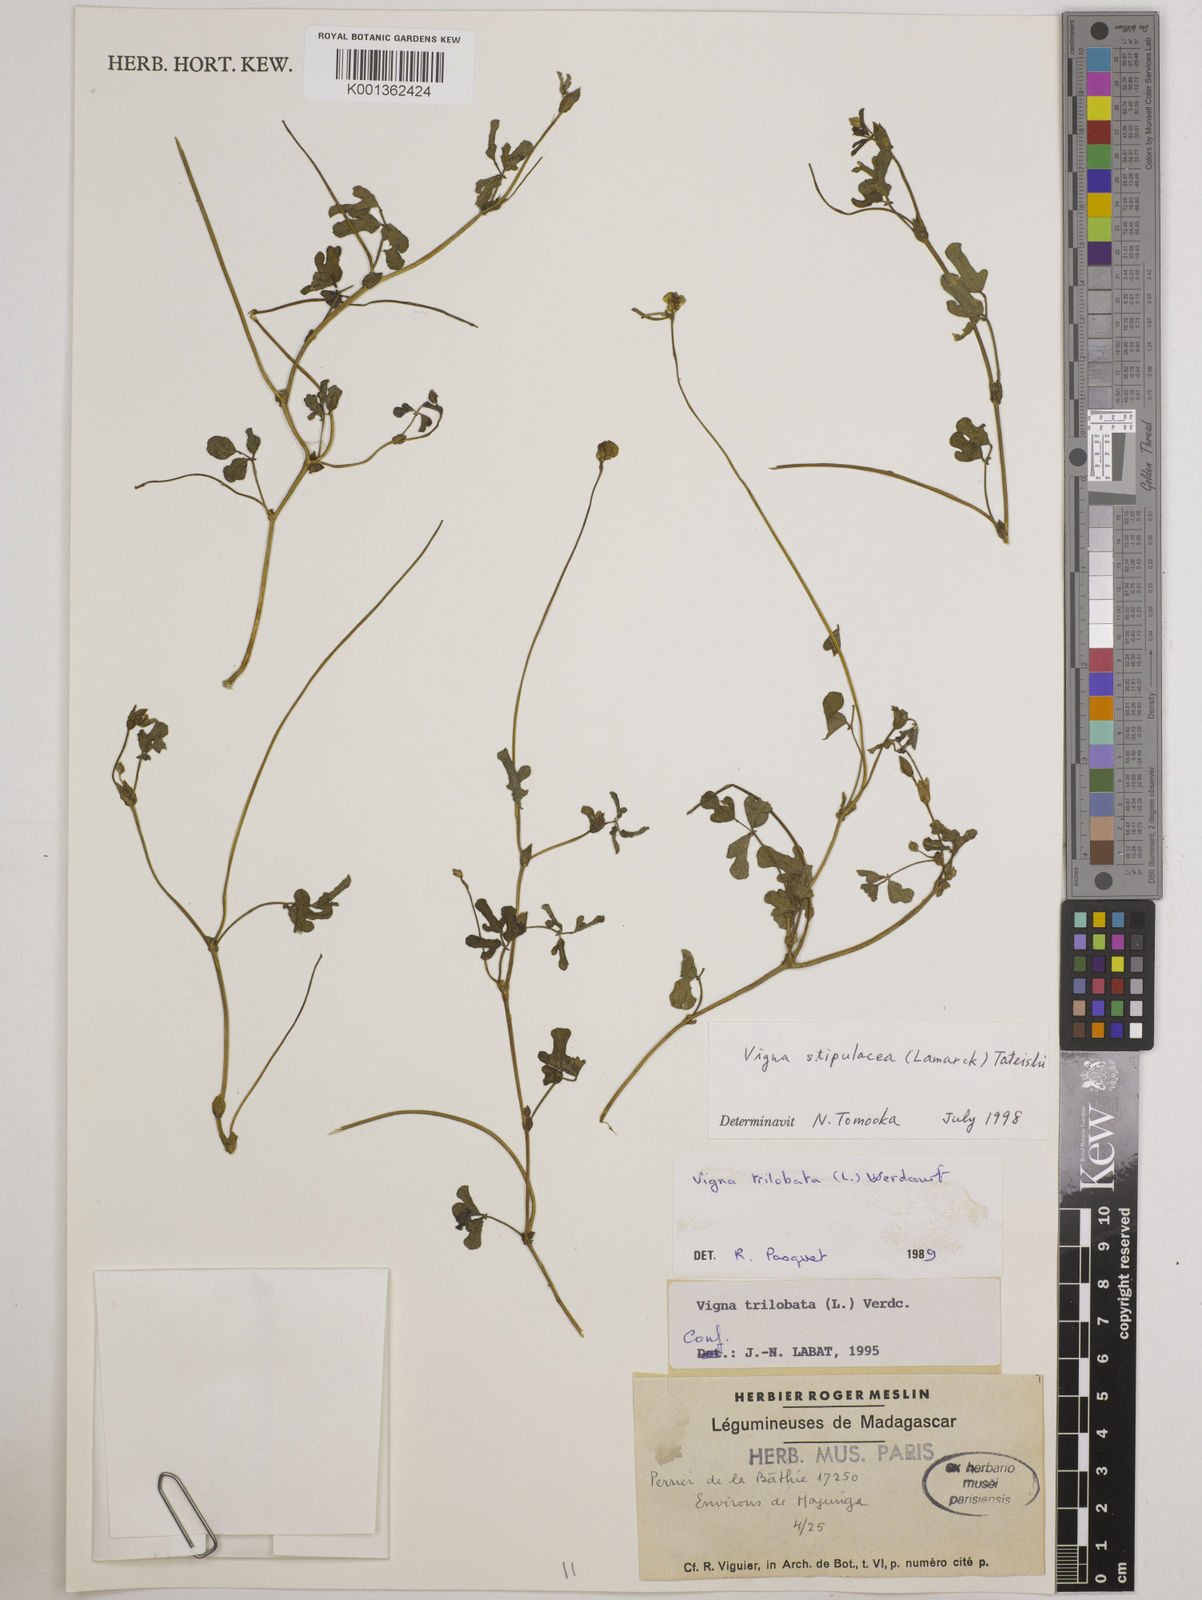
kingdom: Plantae
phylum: Tracheophyta
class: Magnoliopsida
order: Fabales
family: Fabaceae
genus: Pueraria
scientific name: Pueraria montana
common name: Kudzu
